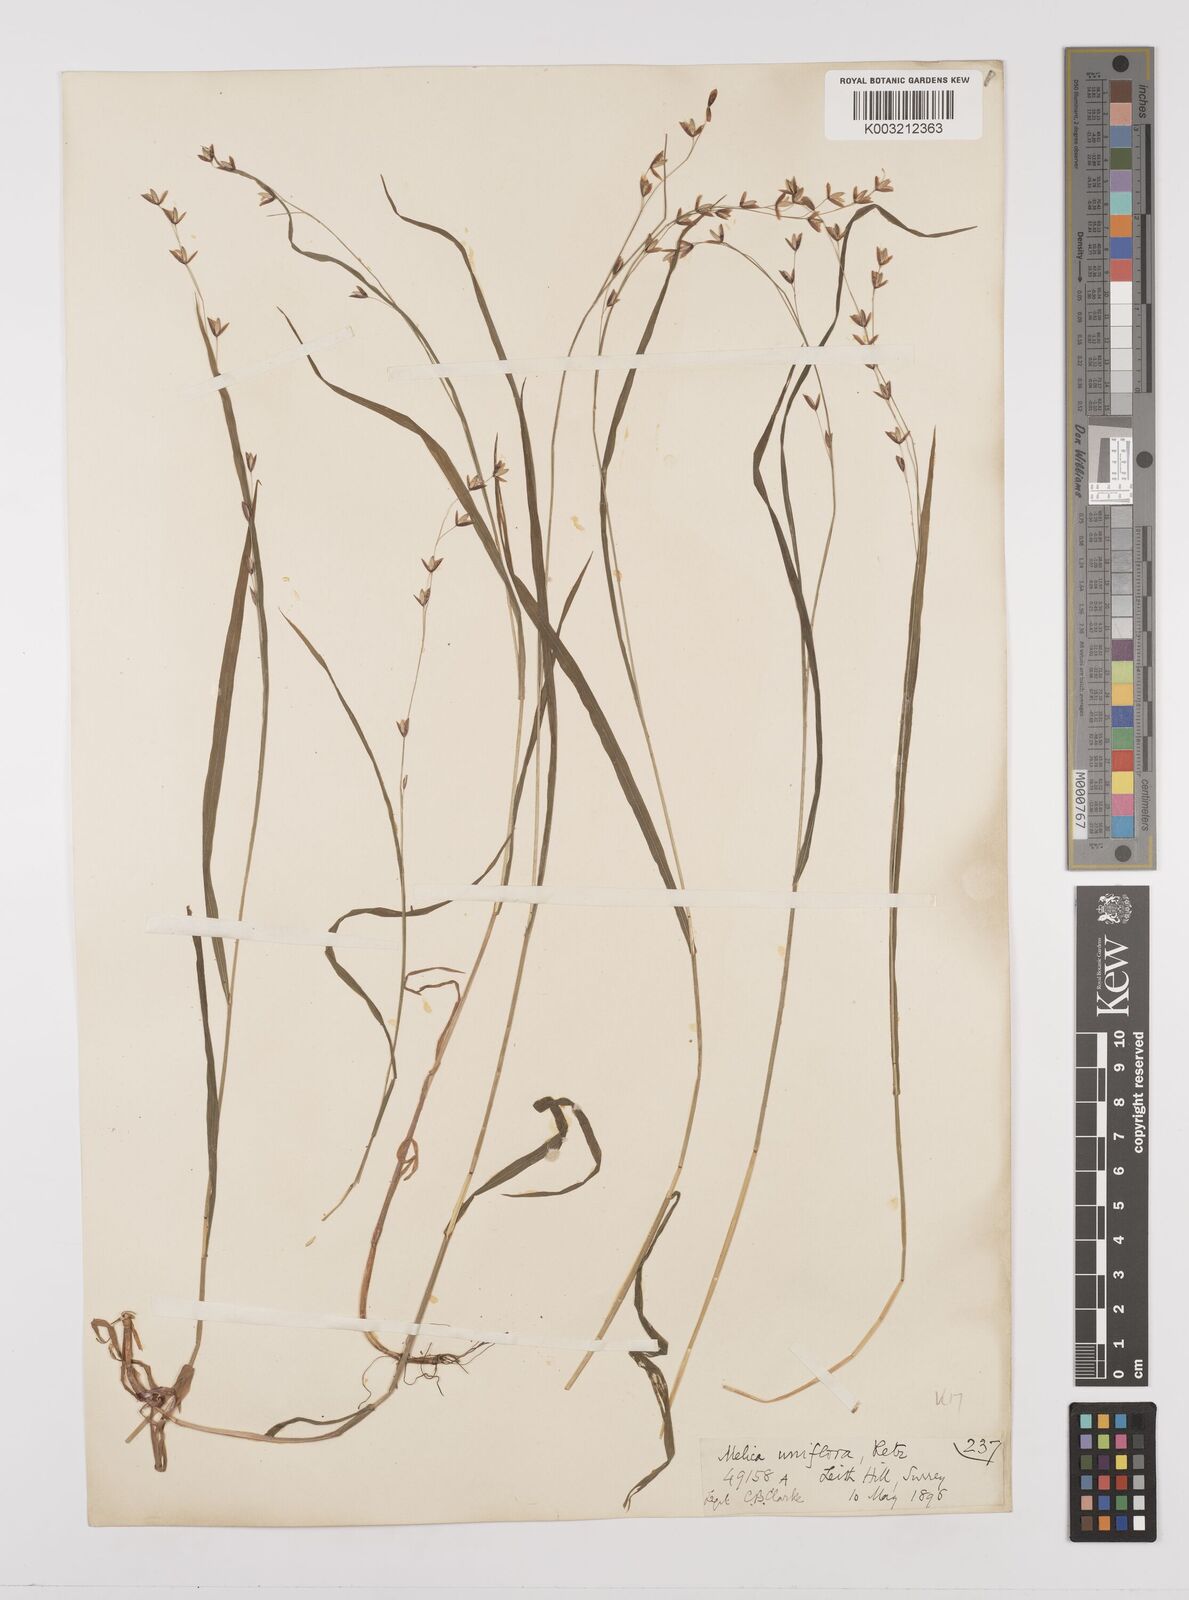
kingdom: Plantae
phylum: Tracheophyta
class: Liliopsida
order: Poales
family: Poaceae
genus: Melica
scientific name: Melica uniflora
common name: Wood melick
